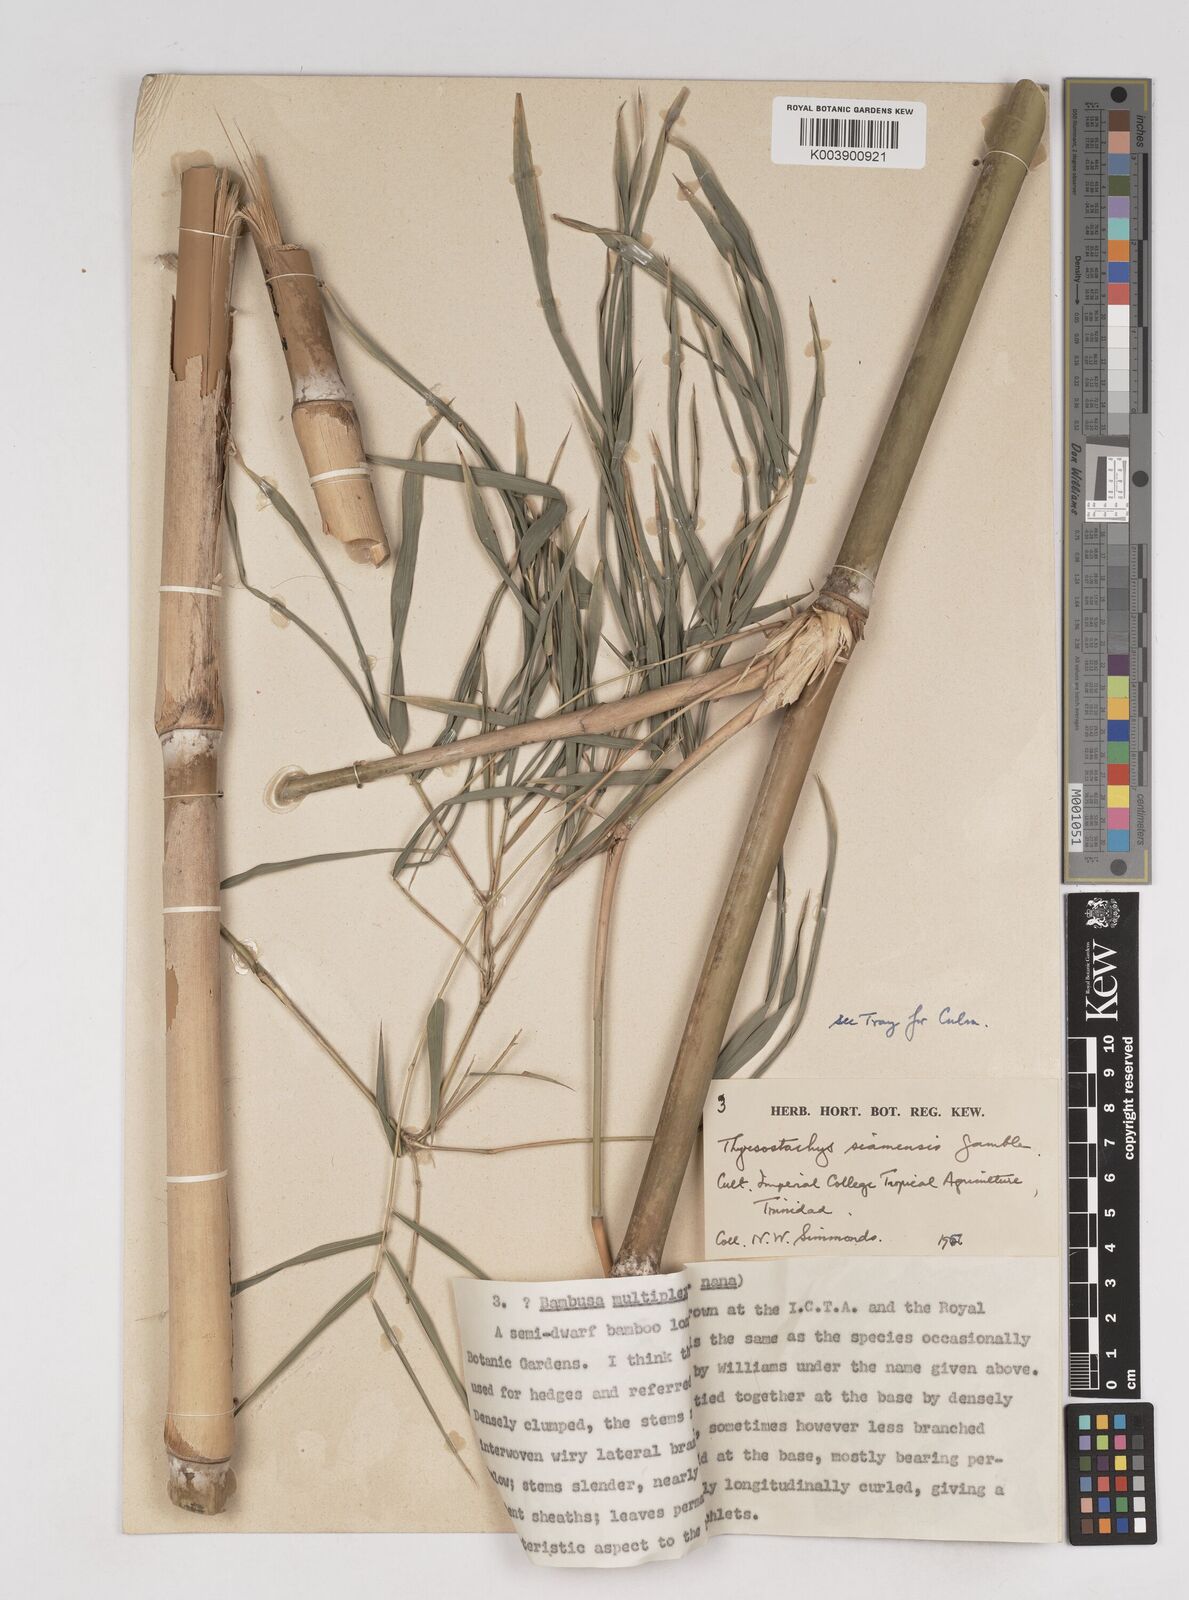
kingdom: Plantae
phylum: Tracheophyta
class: Liliopsida
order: Poales
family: Poaceae
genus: Thyrsostachys
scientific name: Thyrsostachys siamensis
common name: Thailand bamboo
